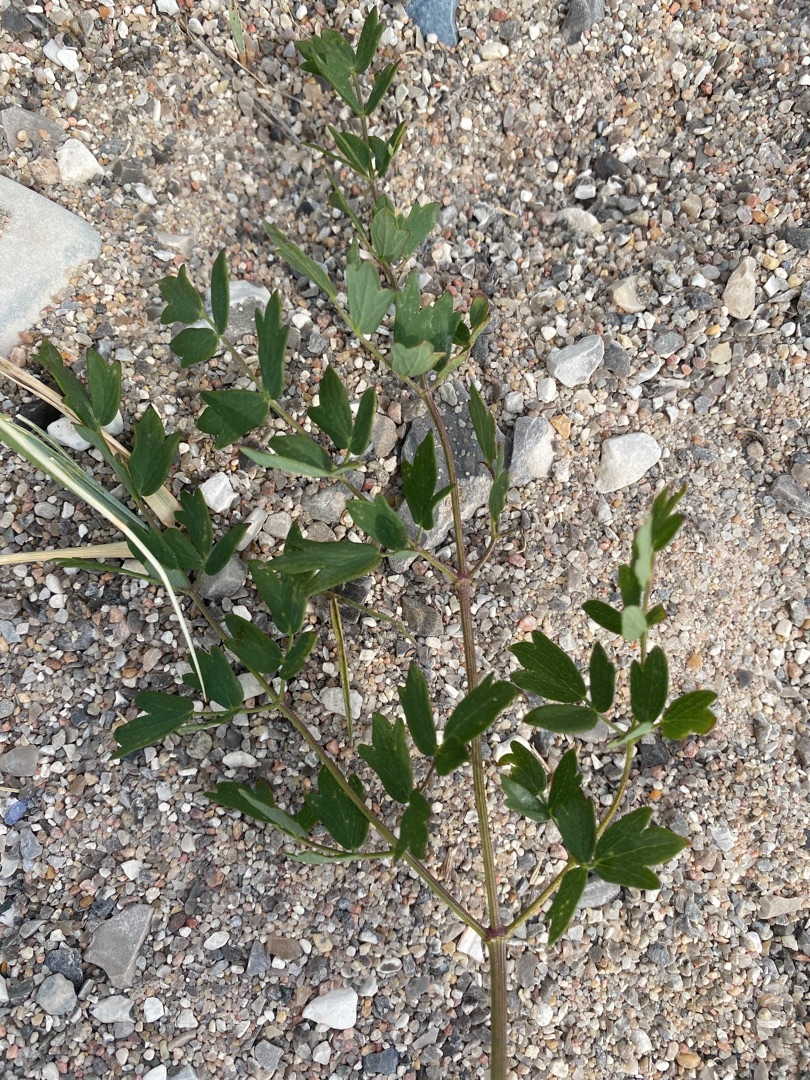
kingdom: Plantae
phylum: Tracheophyta
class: Magnoliopsida
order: Ranunculales
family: Ranunculaceae
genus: Thalictrum
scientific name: Thalictrum minus
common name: Liden frøstjerne
